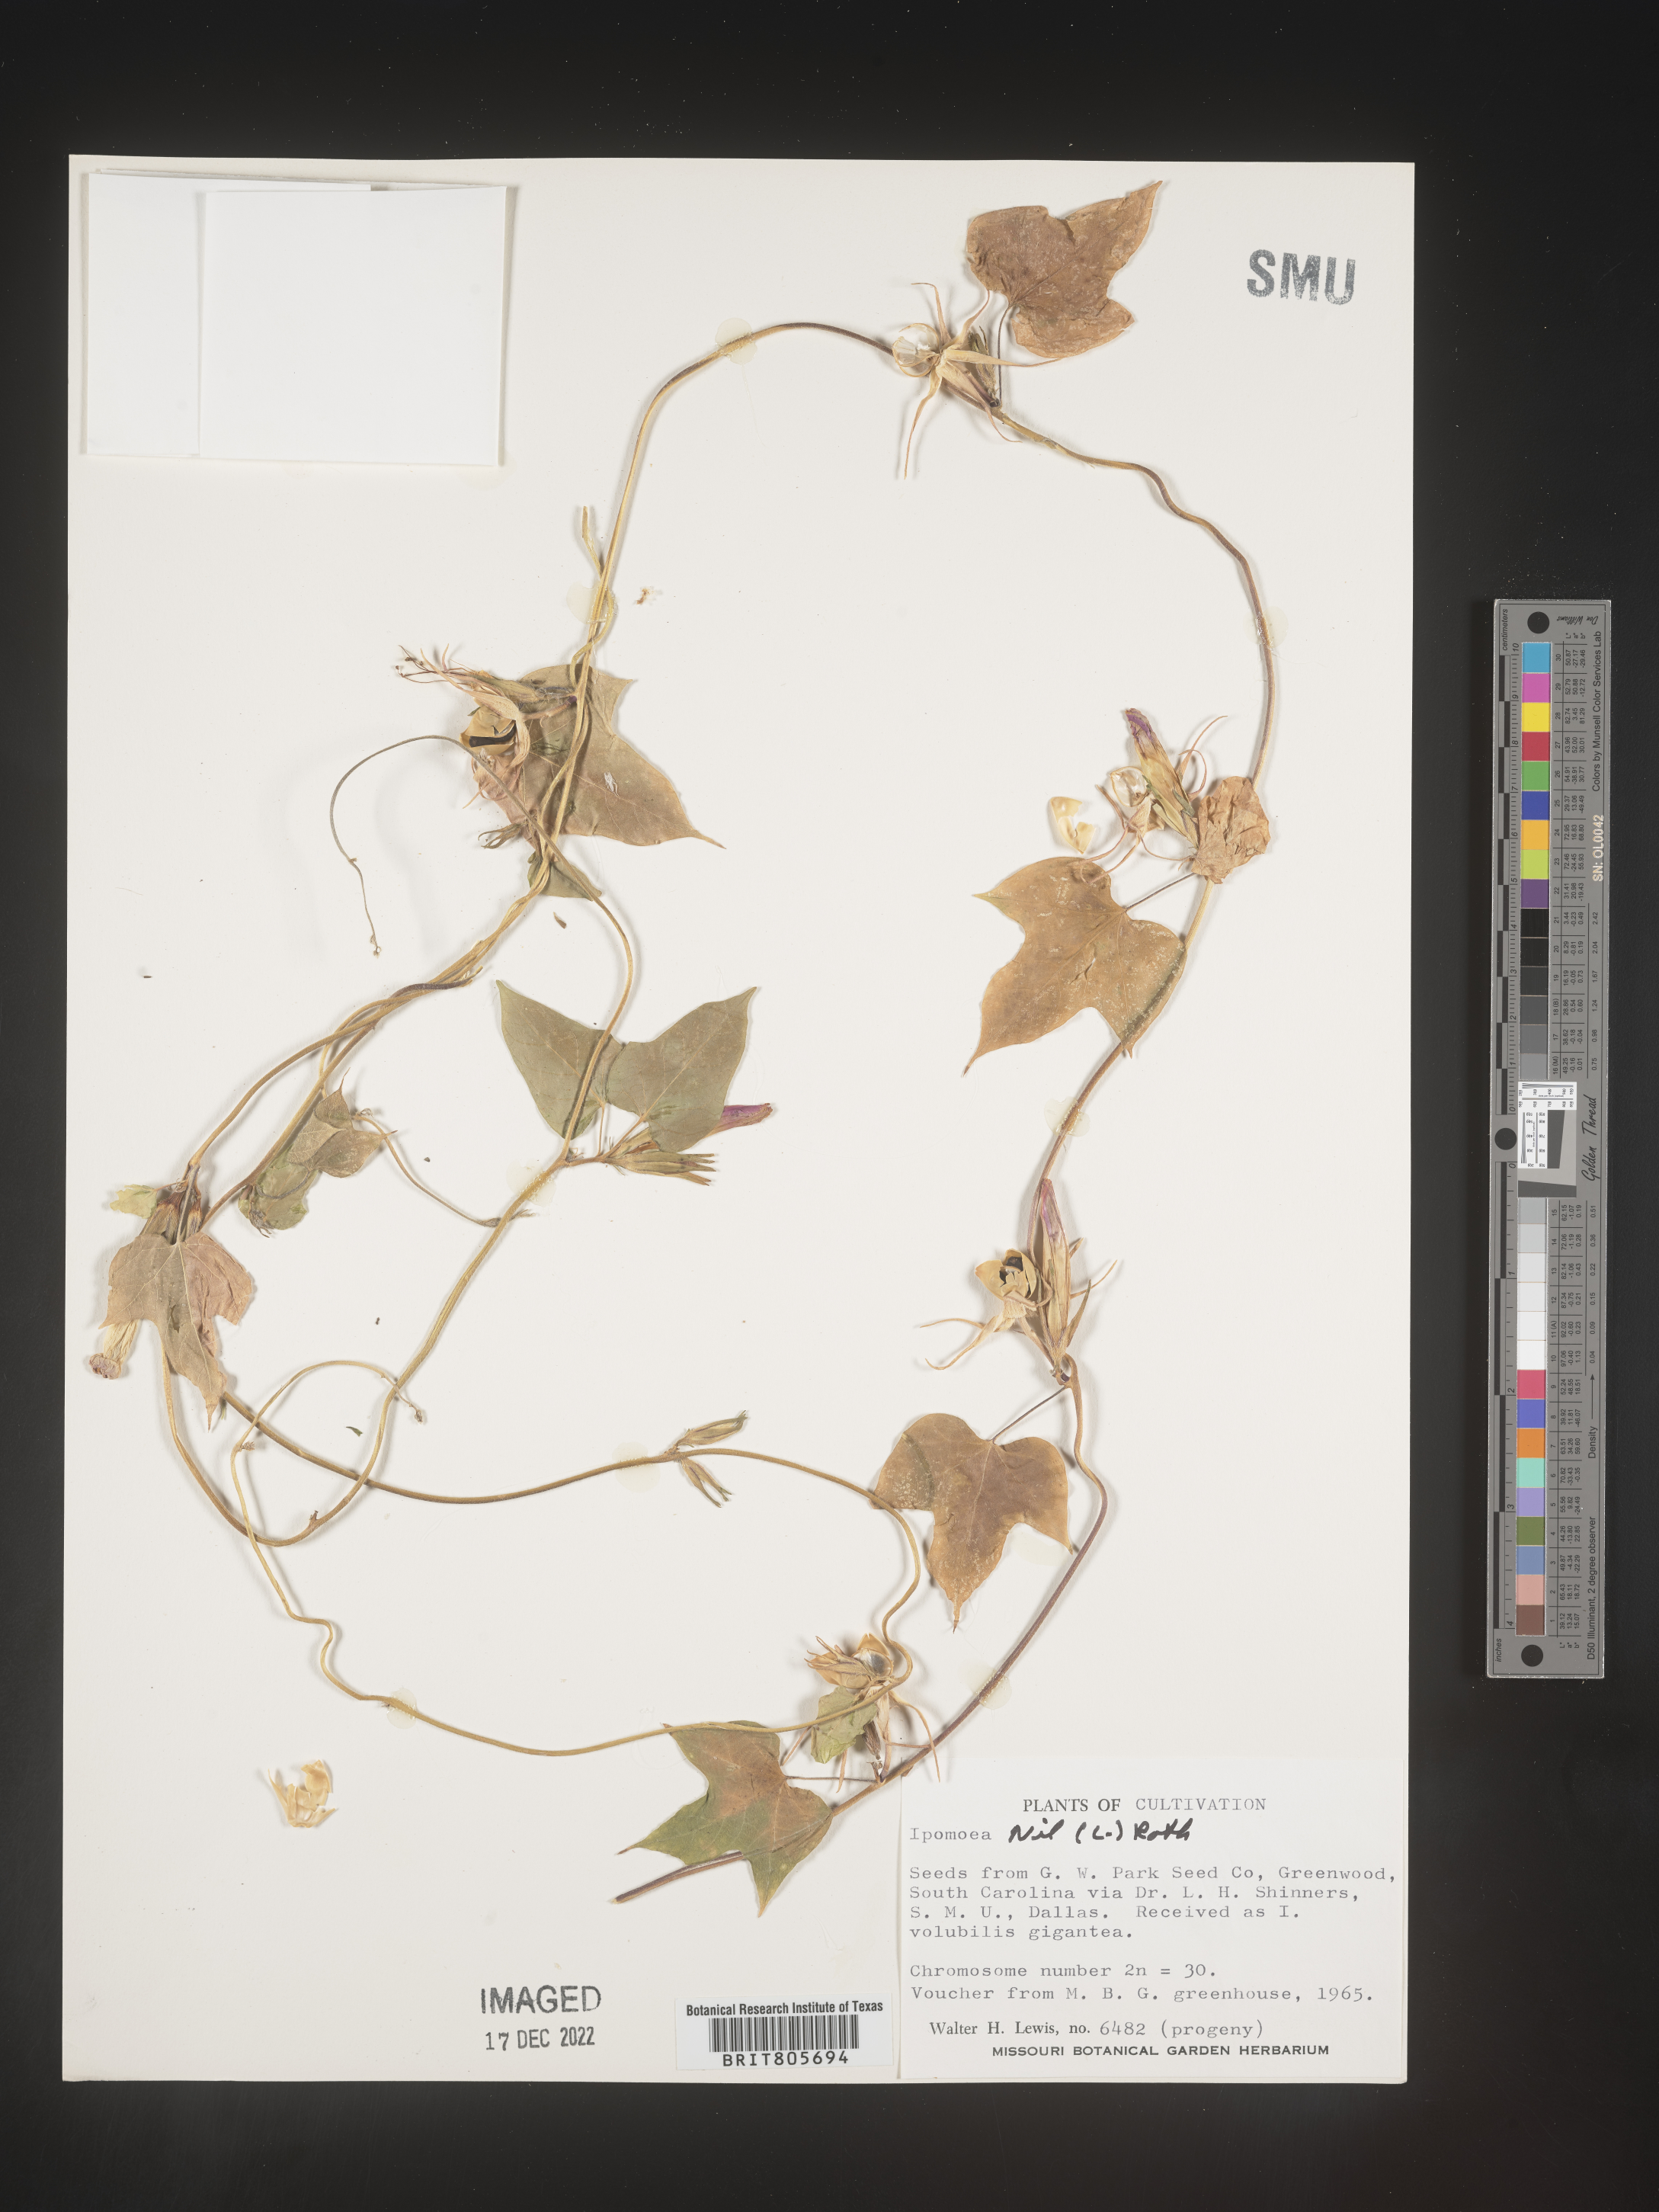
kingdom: Plantae
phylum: Tracheophyta
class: Magnoliopsida
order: Solanales
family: Convolvulaceae
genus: Ipomoea
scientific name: Ipomoea
